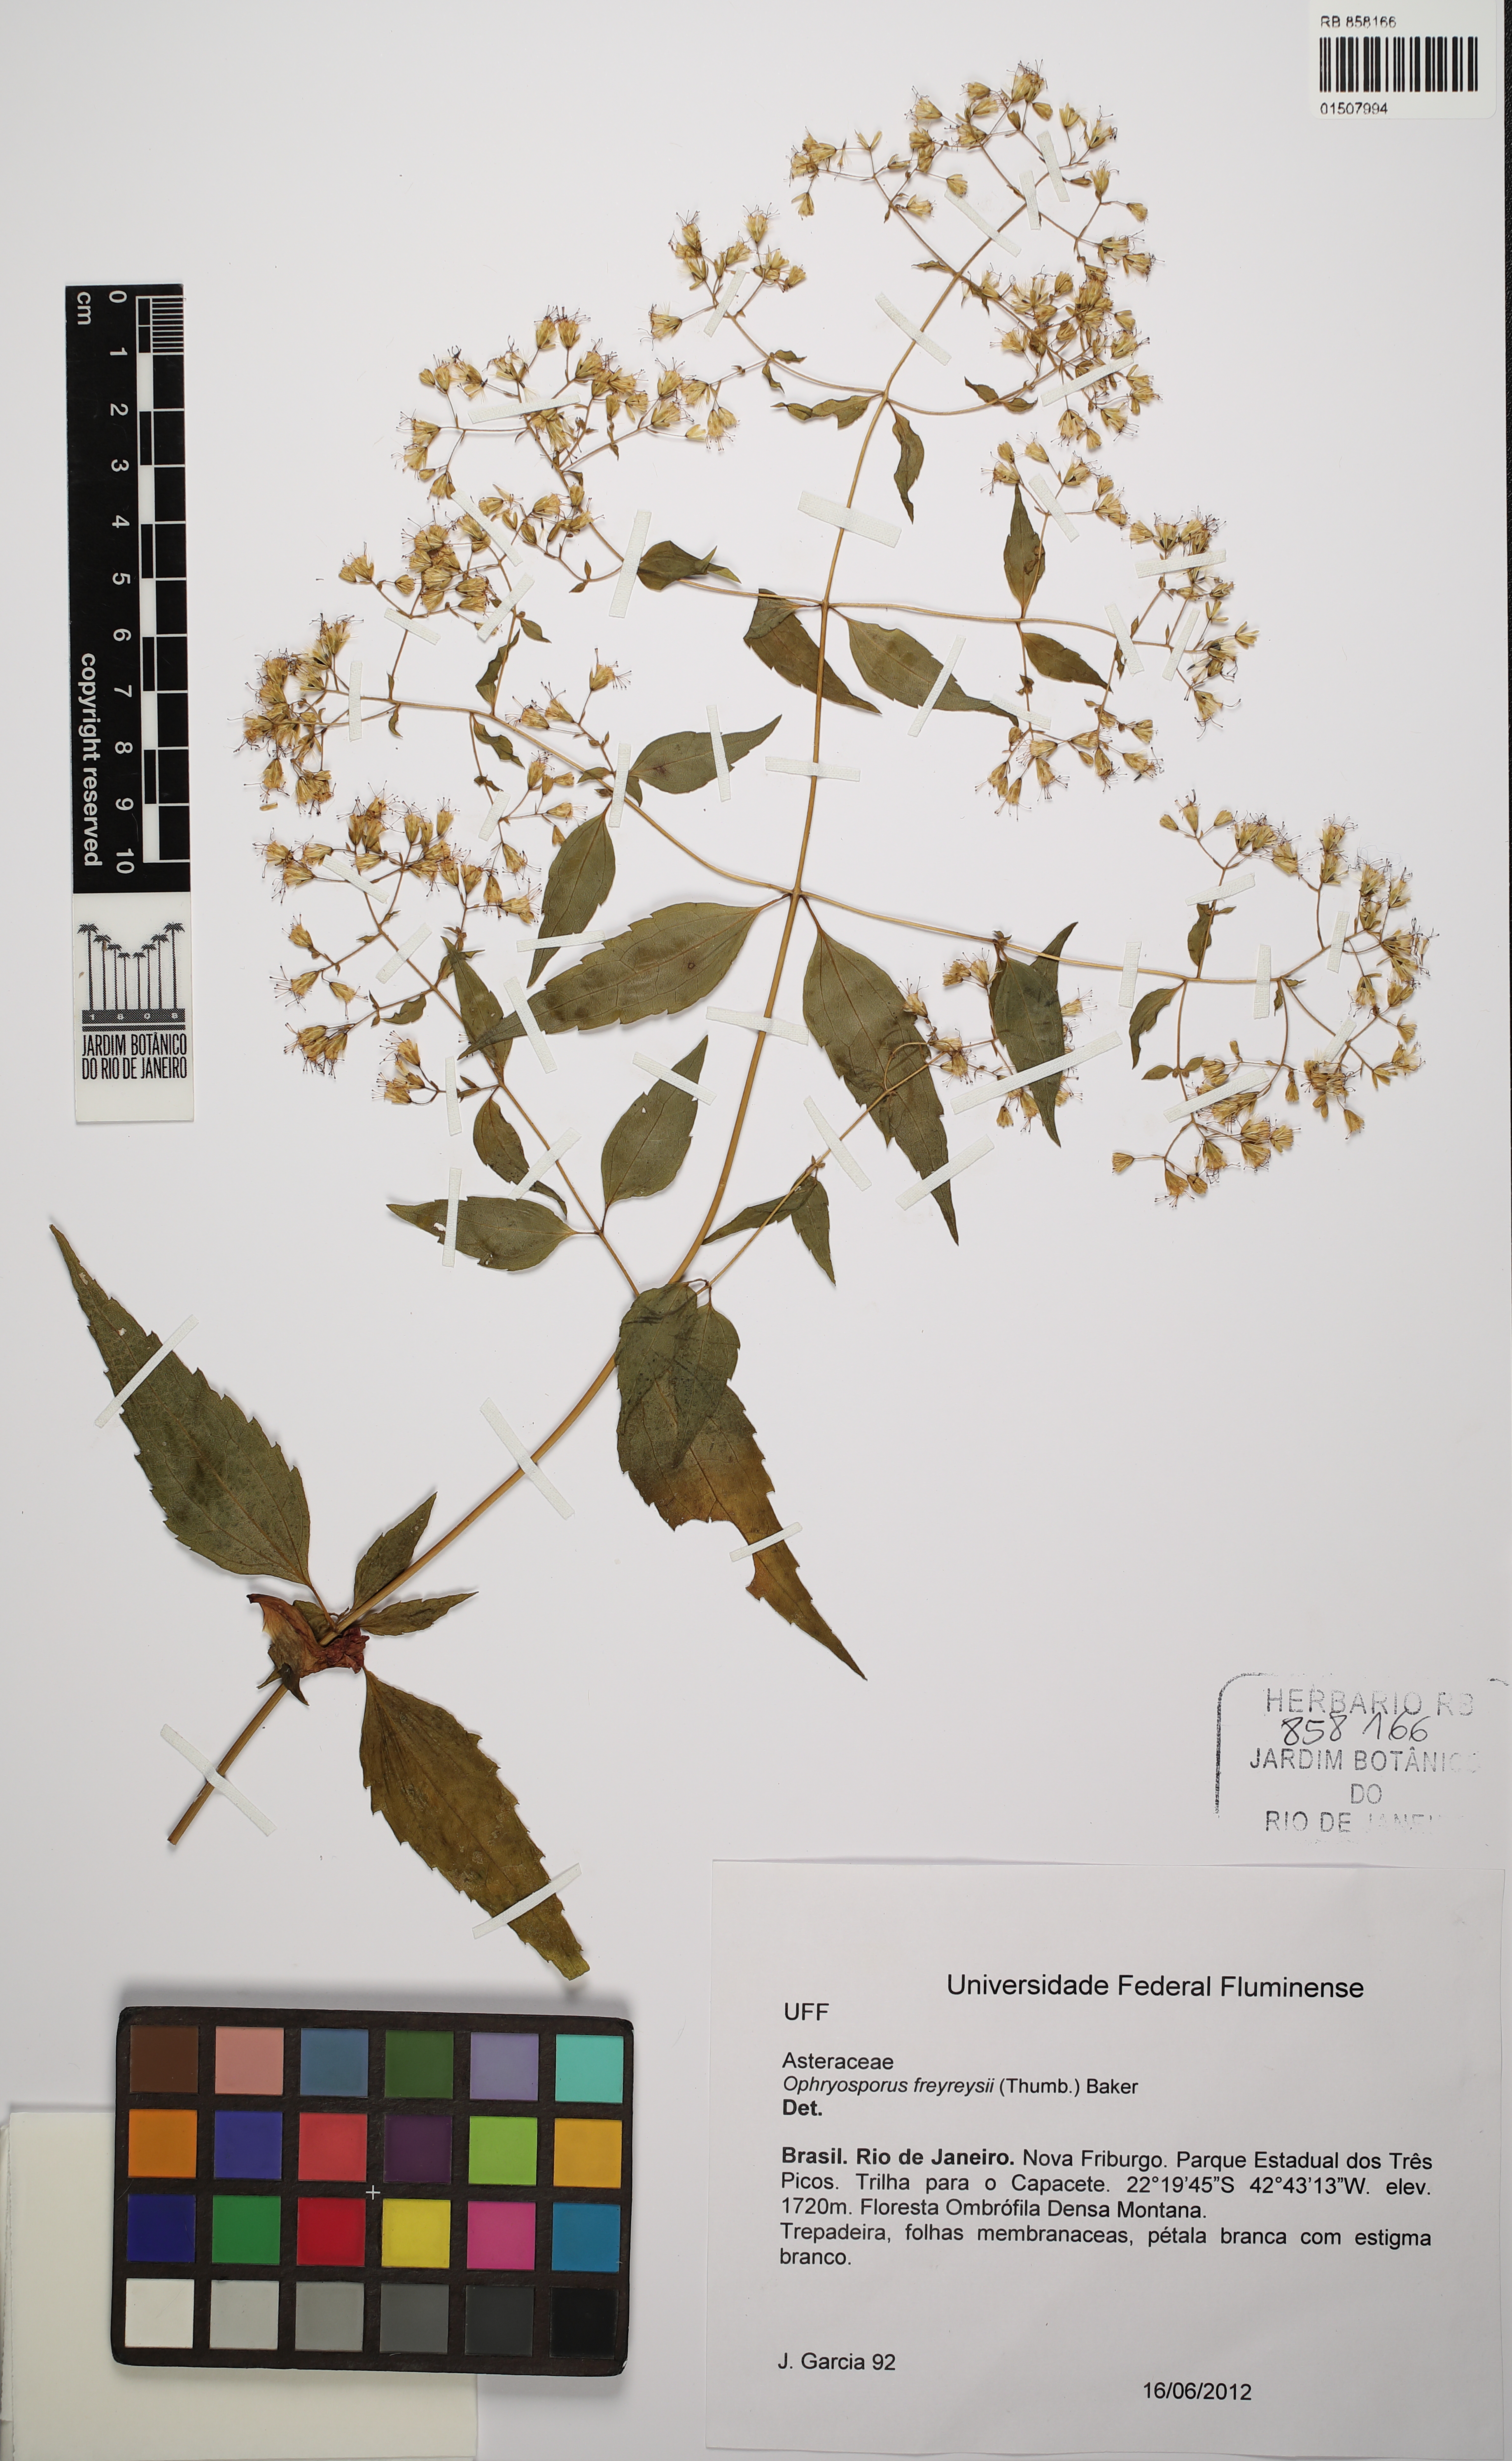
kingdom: Plantae
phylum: Tracheophyta
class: Magnoliopsida
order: Asterales
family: Asteraceae
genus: Ophryosporus
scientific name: Ophryosporus freyreysi
